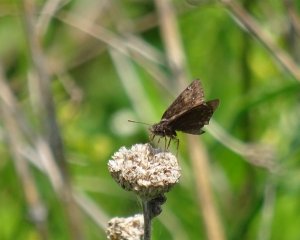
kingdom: Animalia
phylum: Arthropoda
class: Insecta
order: Lepidoptera
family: Hesperiidae
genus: Gesta
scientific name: Gesta
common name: Wild Indigo Duskywing
